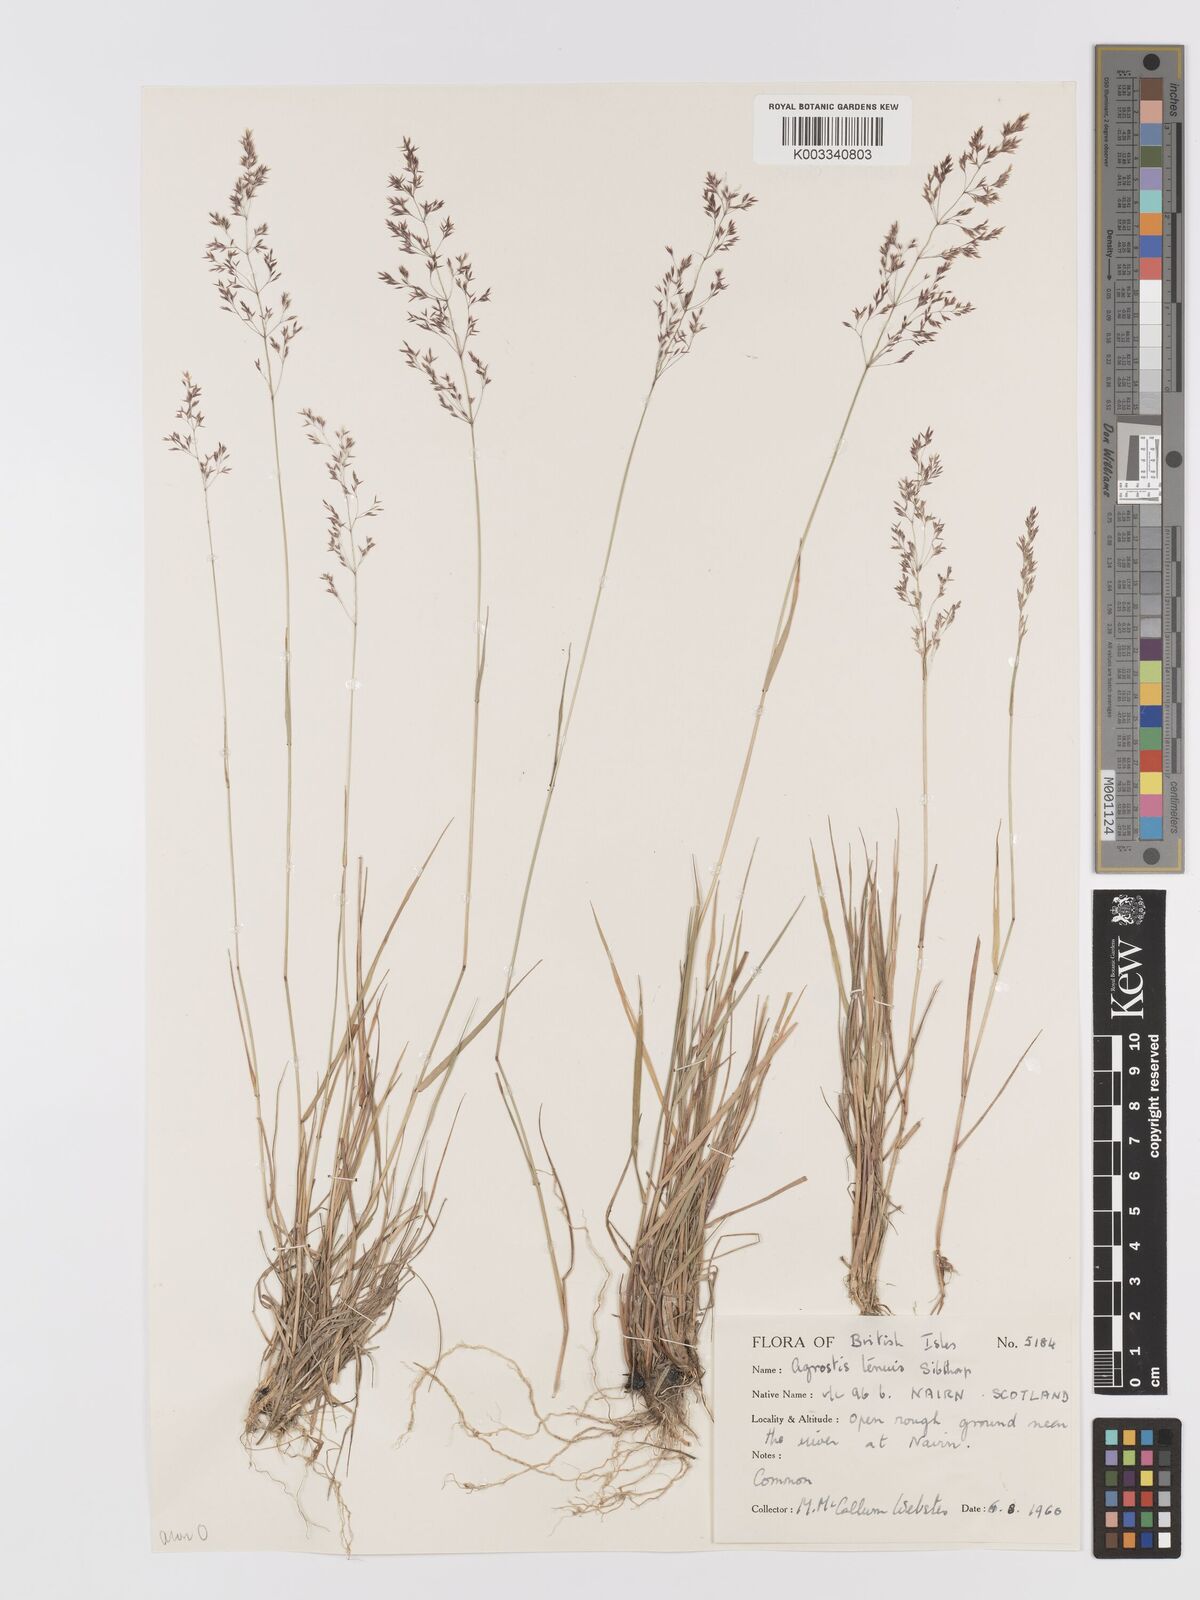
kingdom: Plantae
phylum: Tracheophyta
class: Liliopsida
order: Poales
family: Poaceae
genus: Agrostis
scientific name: Agrostis capillaris
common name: Colonial bentgrass
